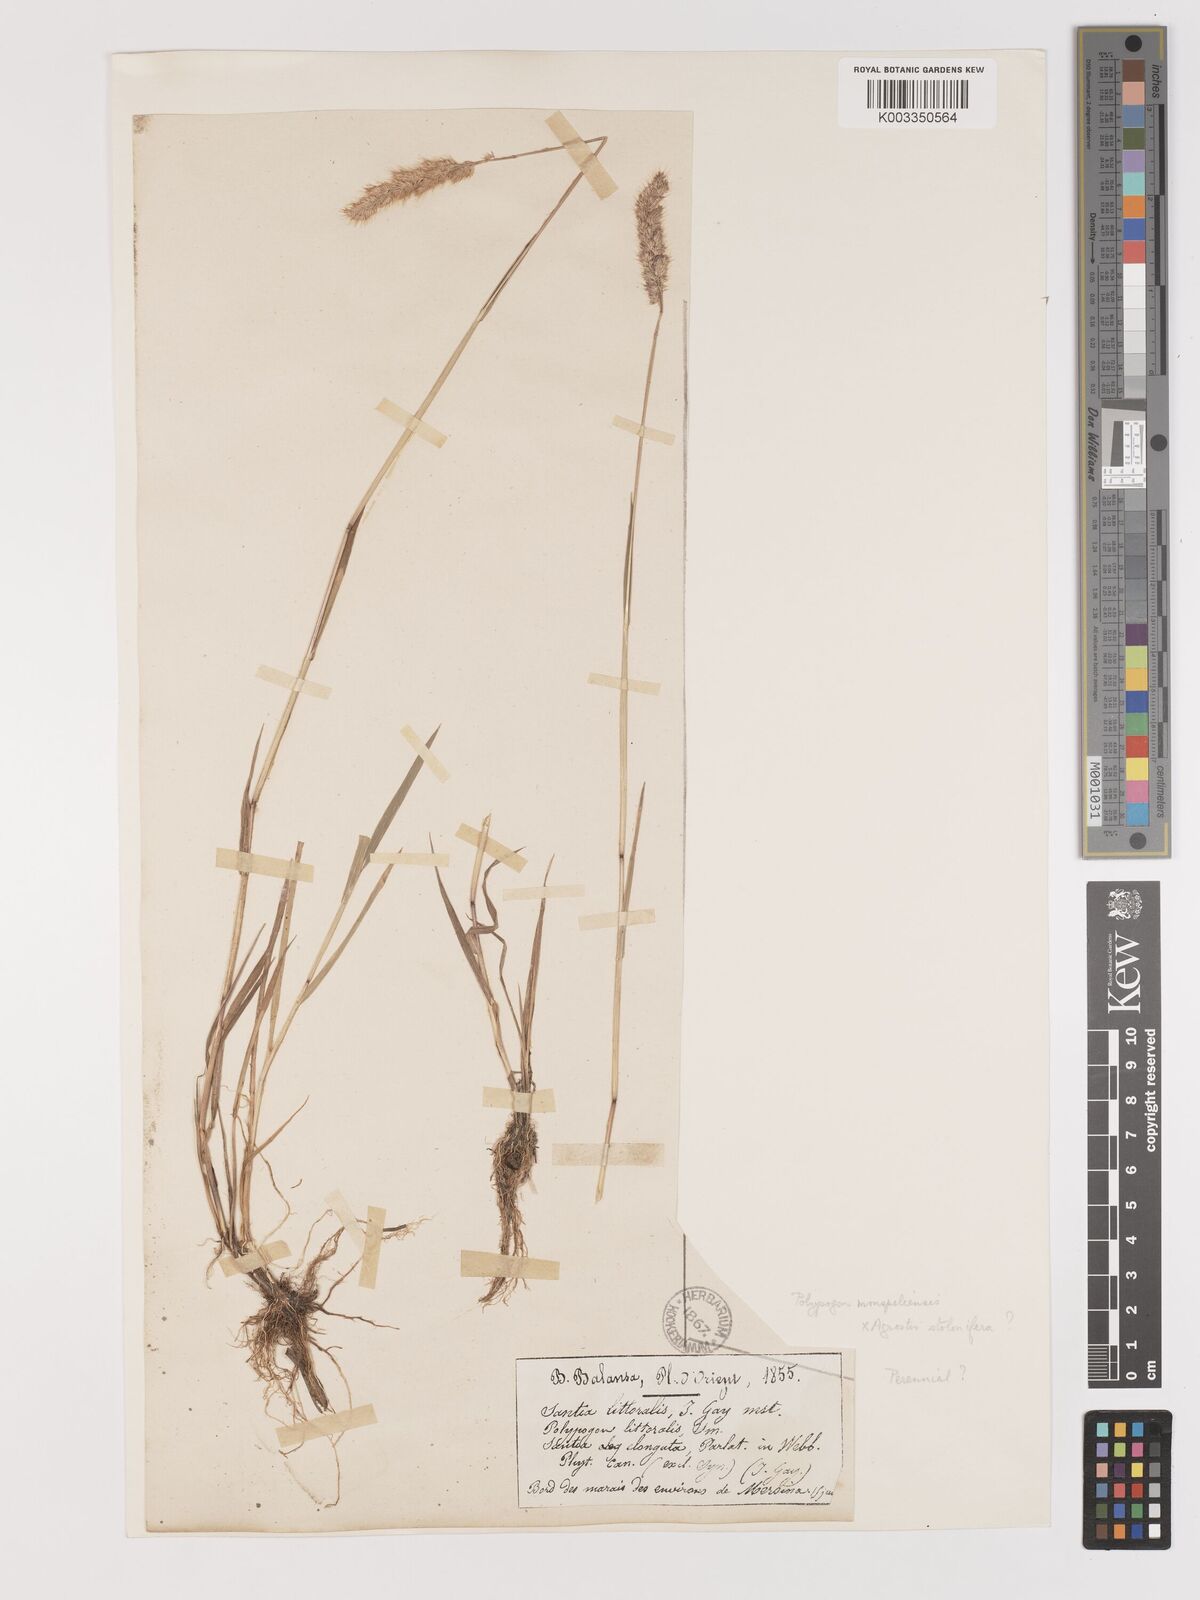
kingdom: Plantae
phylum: Tracheophyta
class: Liliopsida
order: Poales
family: Poaceae
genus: Agropogon
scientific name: Agropogon lutosus
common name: Coast agropogon
